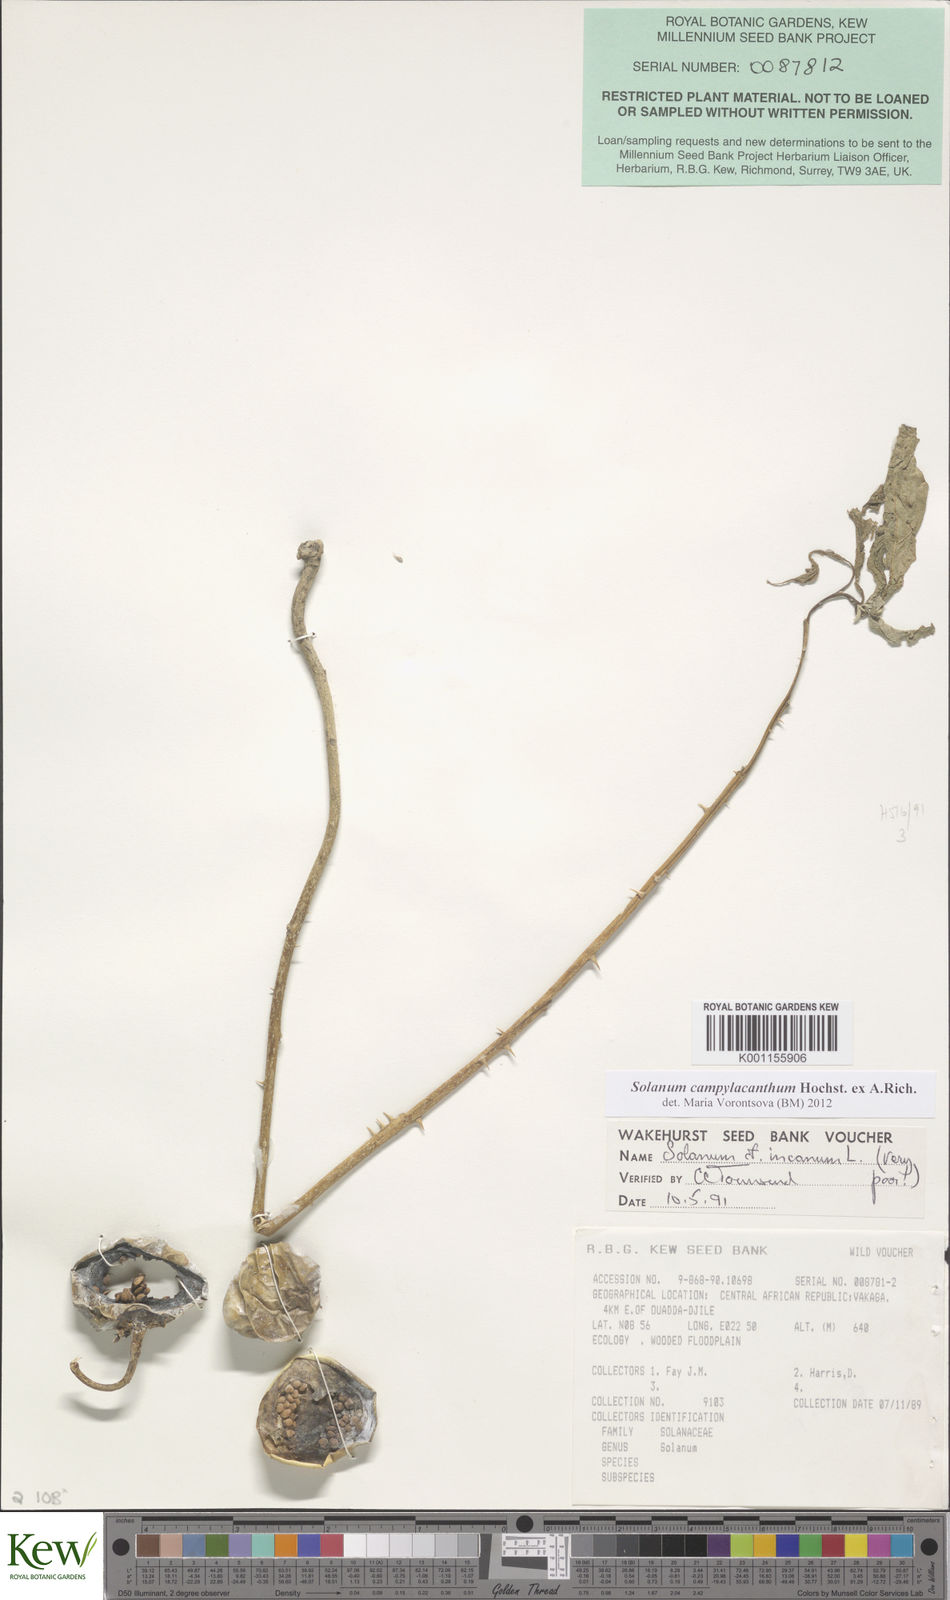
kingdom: Plantae
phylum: Tracheophyta
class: Magnoliopsida
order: Solanales
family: Solanaceae
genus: Solanum
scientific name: Solanum campylacanthum
